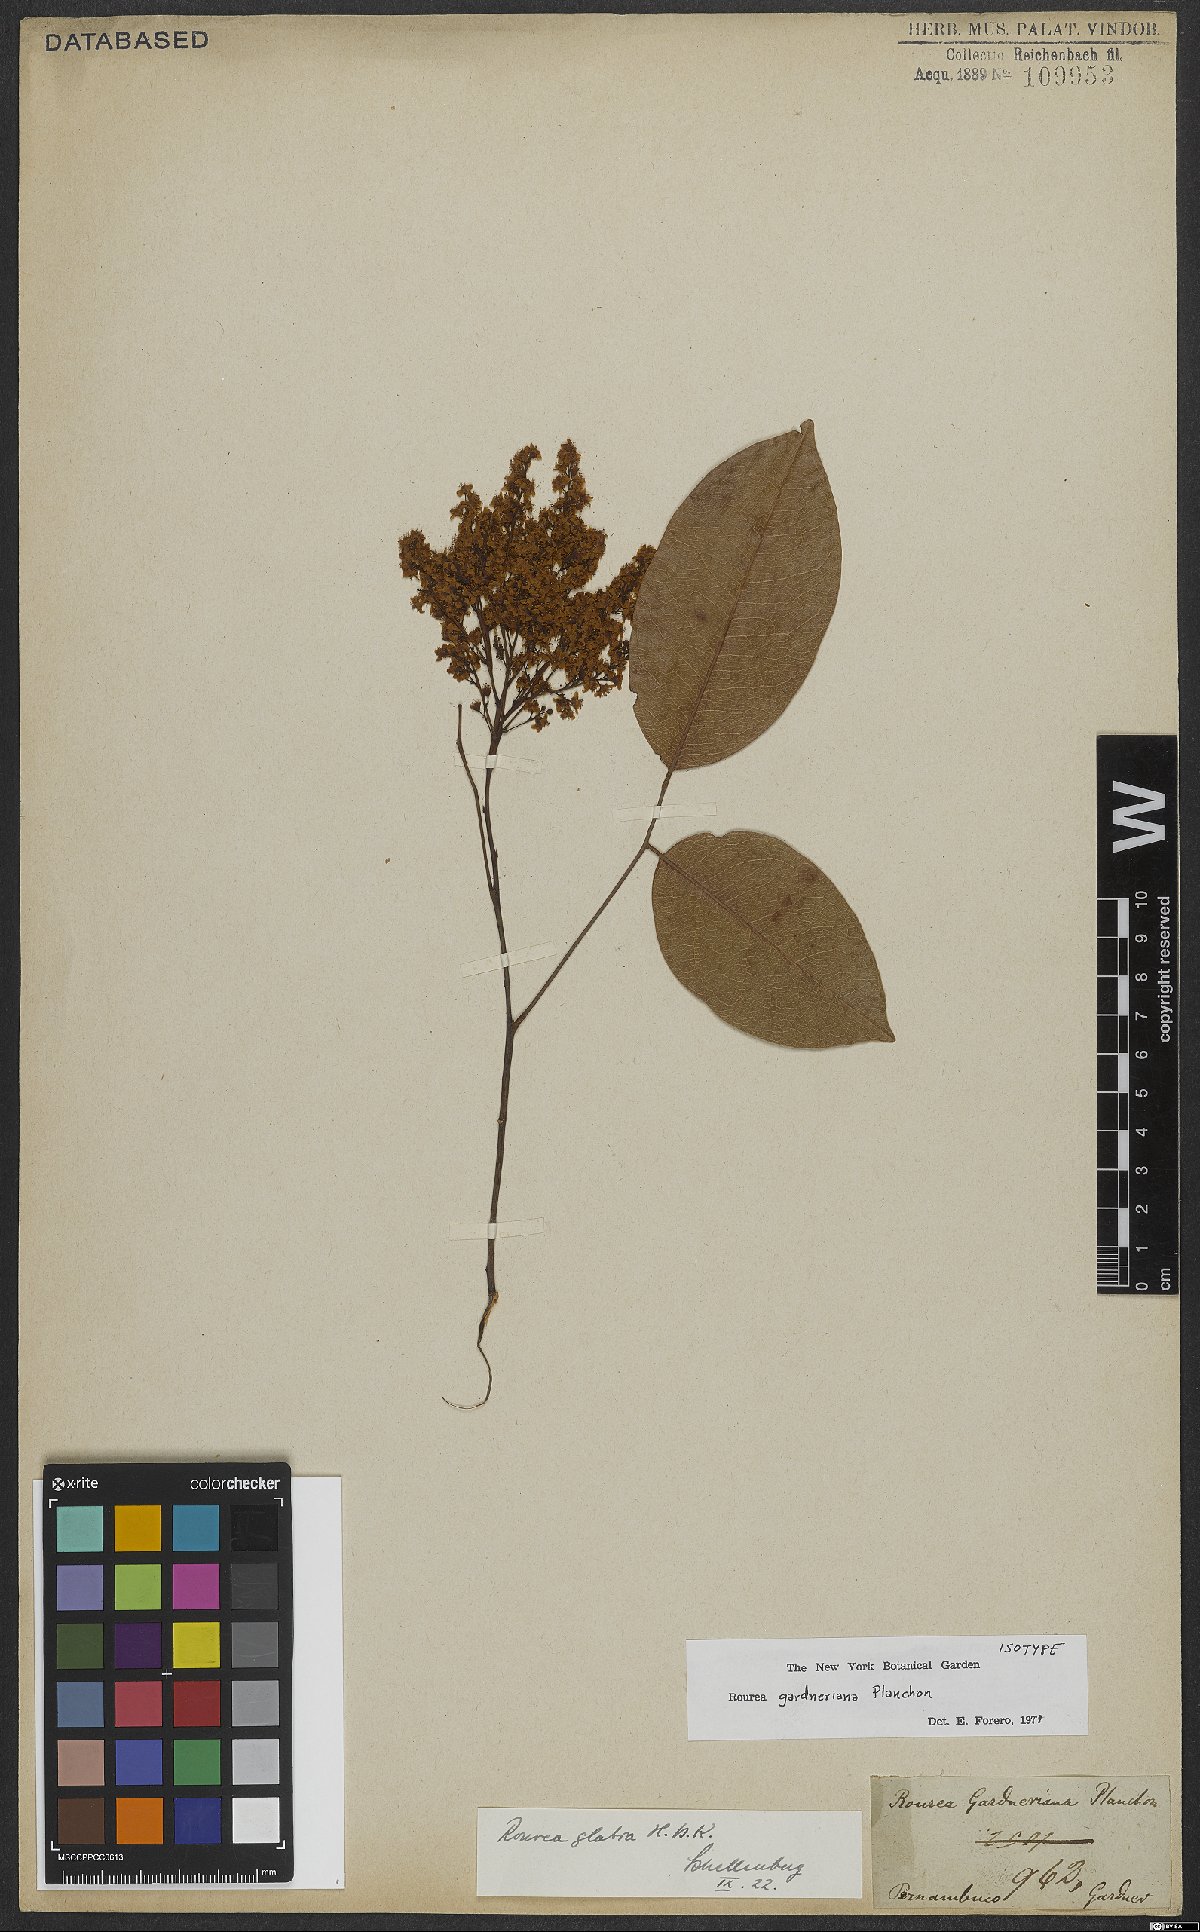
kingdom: Plantae
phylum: Tracheophyta
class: Magnoliopsida
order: Oxalidales
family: Connaraceae
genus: Rourea
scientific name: Rourea gardneriana
